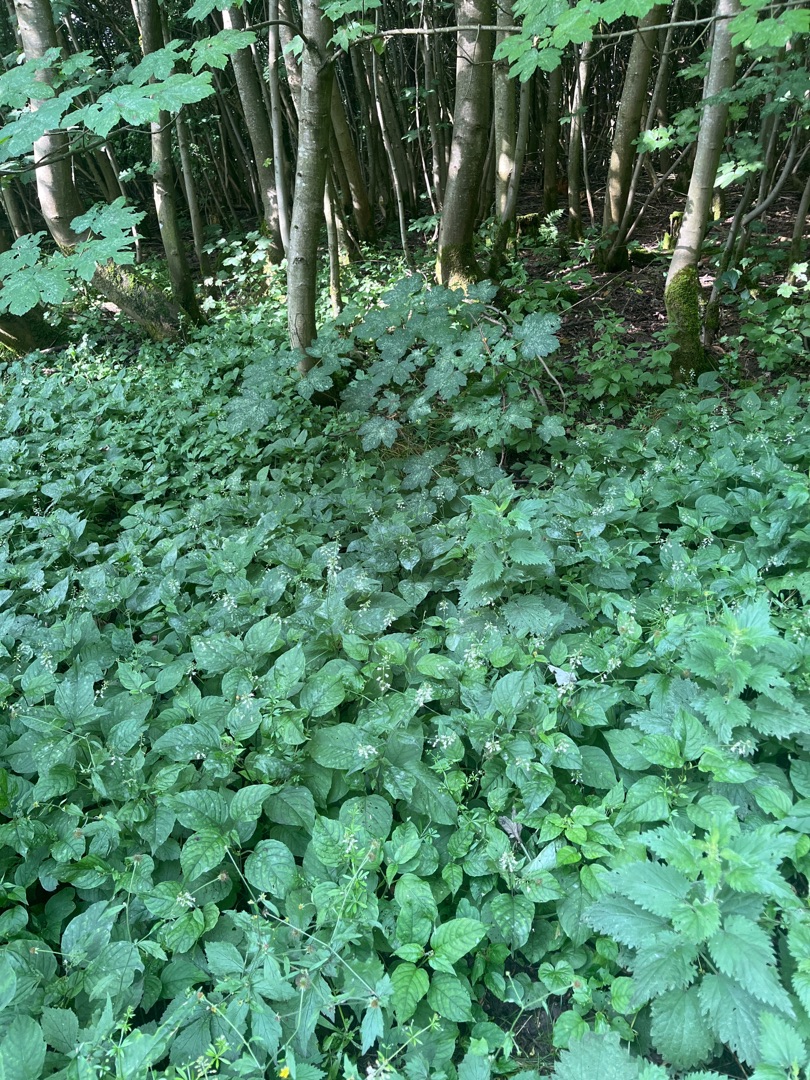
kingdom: Plantae
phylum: Tracheophyta
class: Magnoliopsida
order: Myrtales
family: Onagraceae
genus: Circaea
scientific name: Circaea lutetiana
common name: Dunet steffensurt
